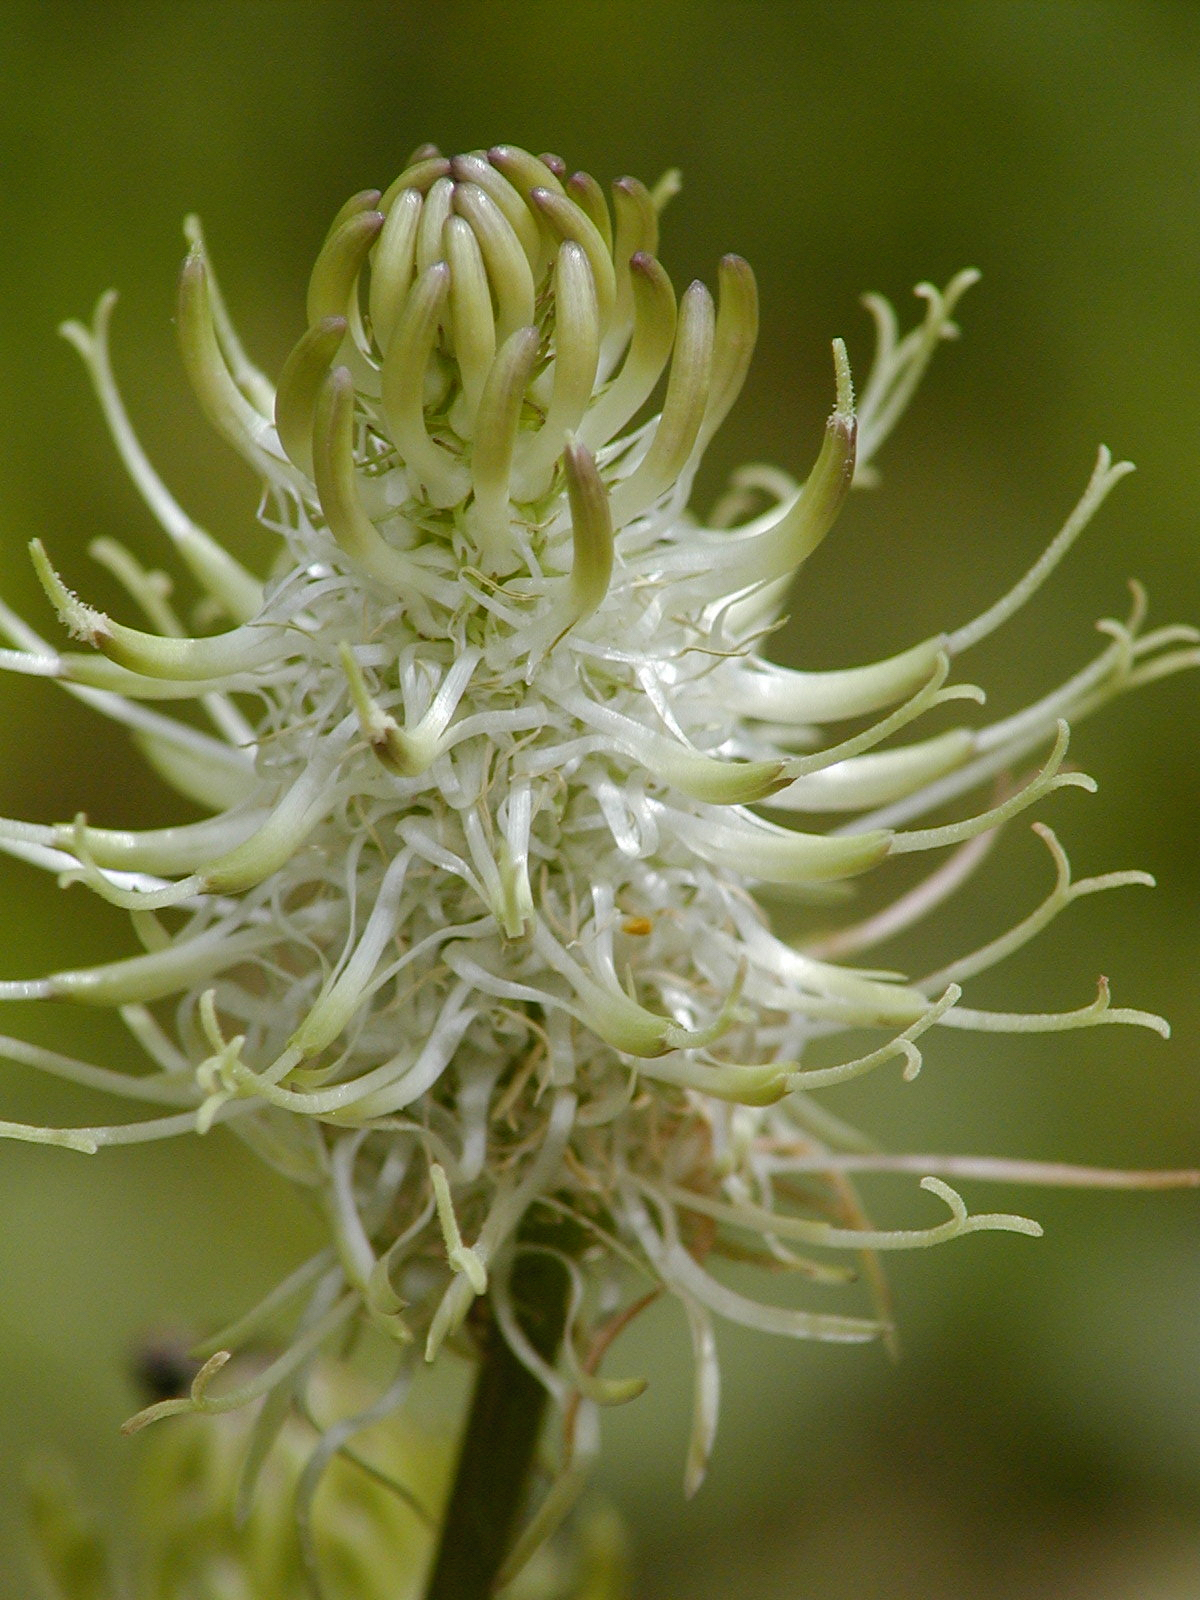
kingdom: Plantae
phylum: Tracheophyta
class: Magnoliopsida
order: Asterales
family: Campanulaceae
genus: Phyteuma
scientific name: Phyteuma spicatum
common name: Spiked rampion
